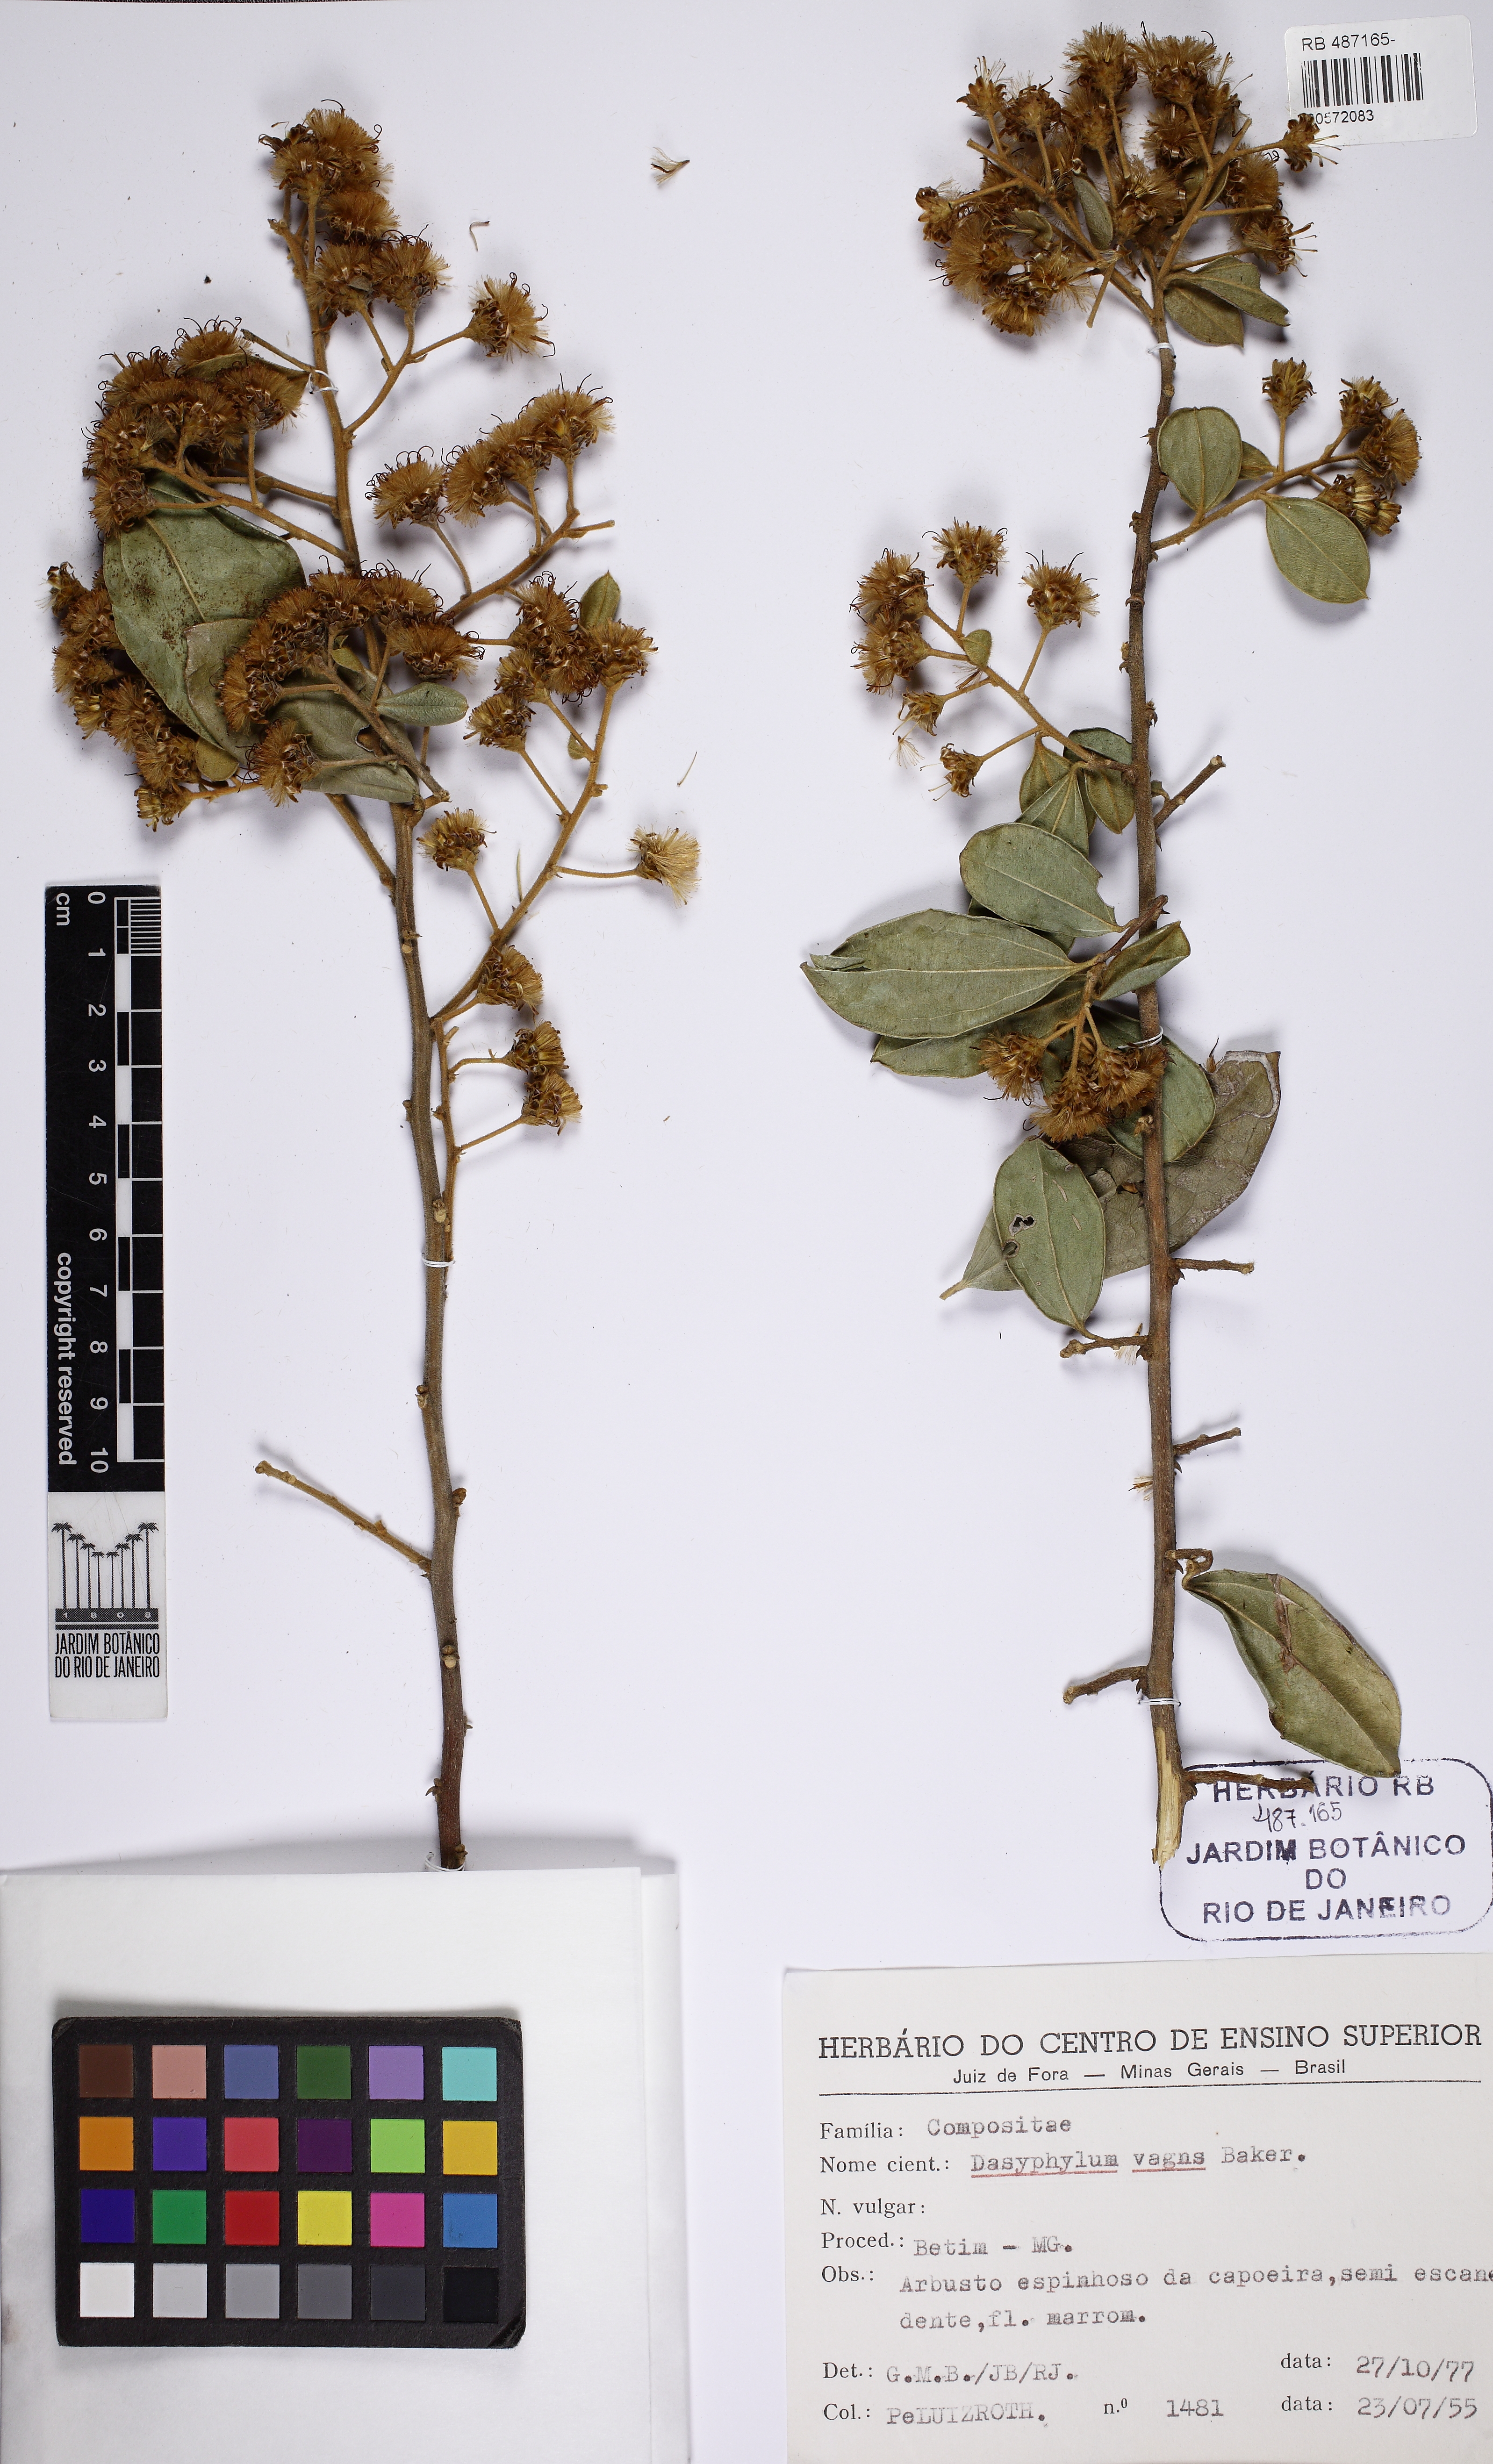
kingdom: Plantae
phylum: Tracheophyta
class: Magnoliopsida
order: Asterales
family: Asteraceae
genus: Dasyphyllum
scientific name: Dasyphyllum vagans
